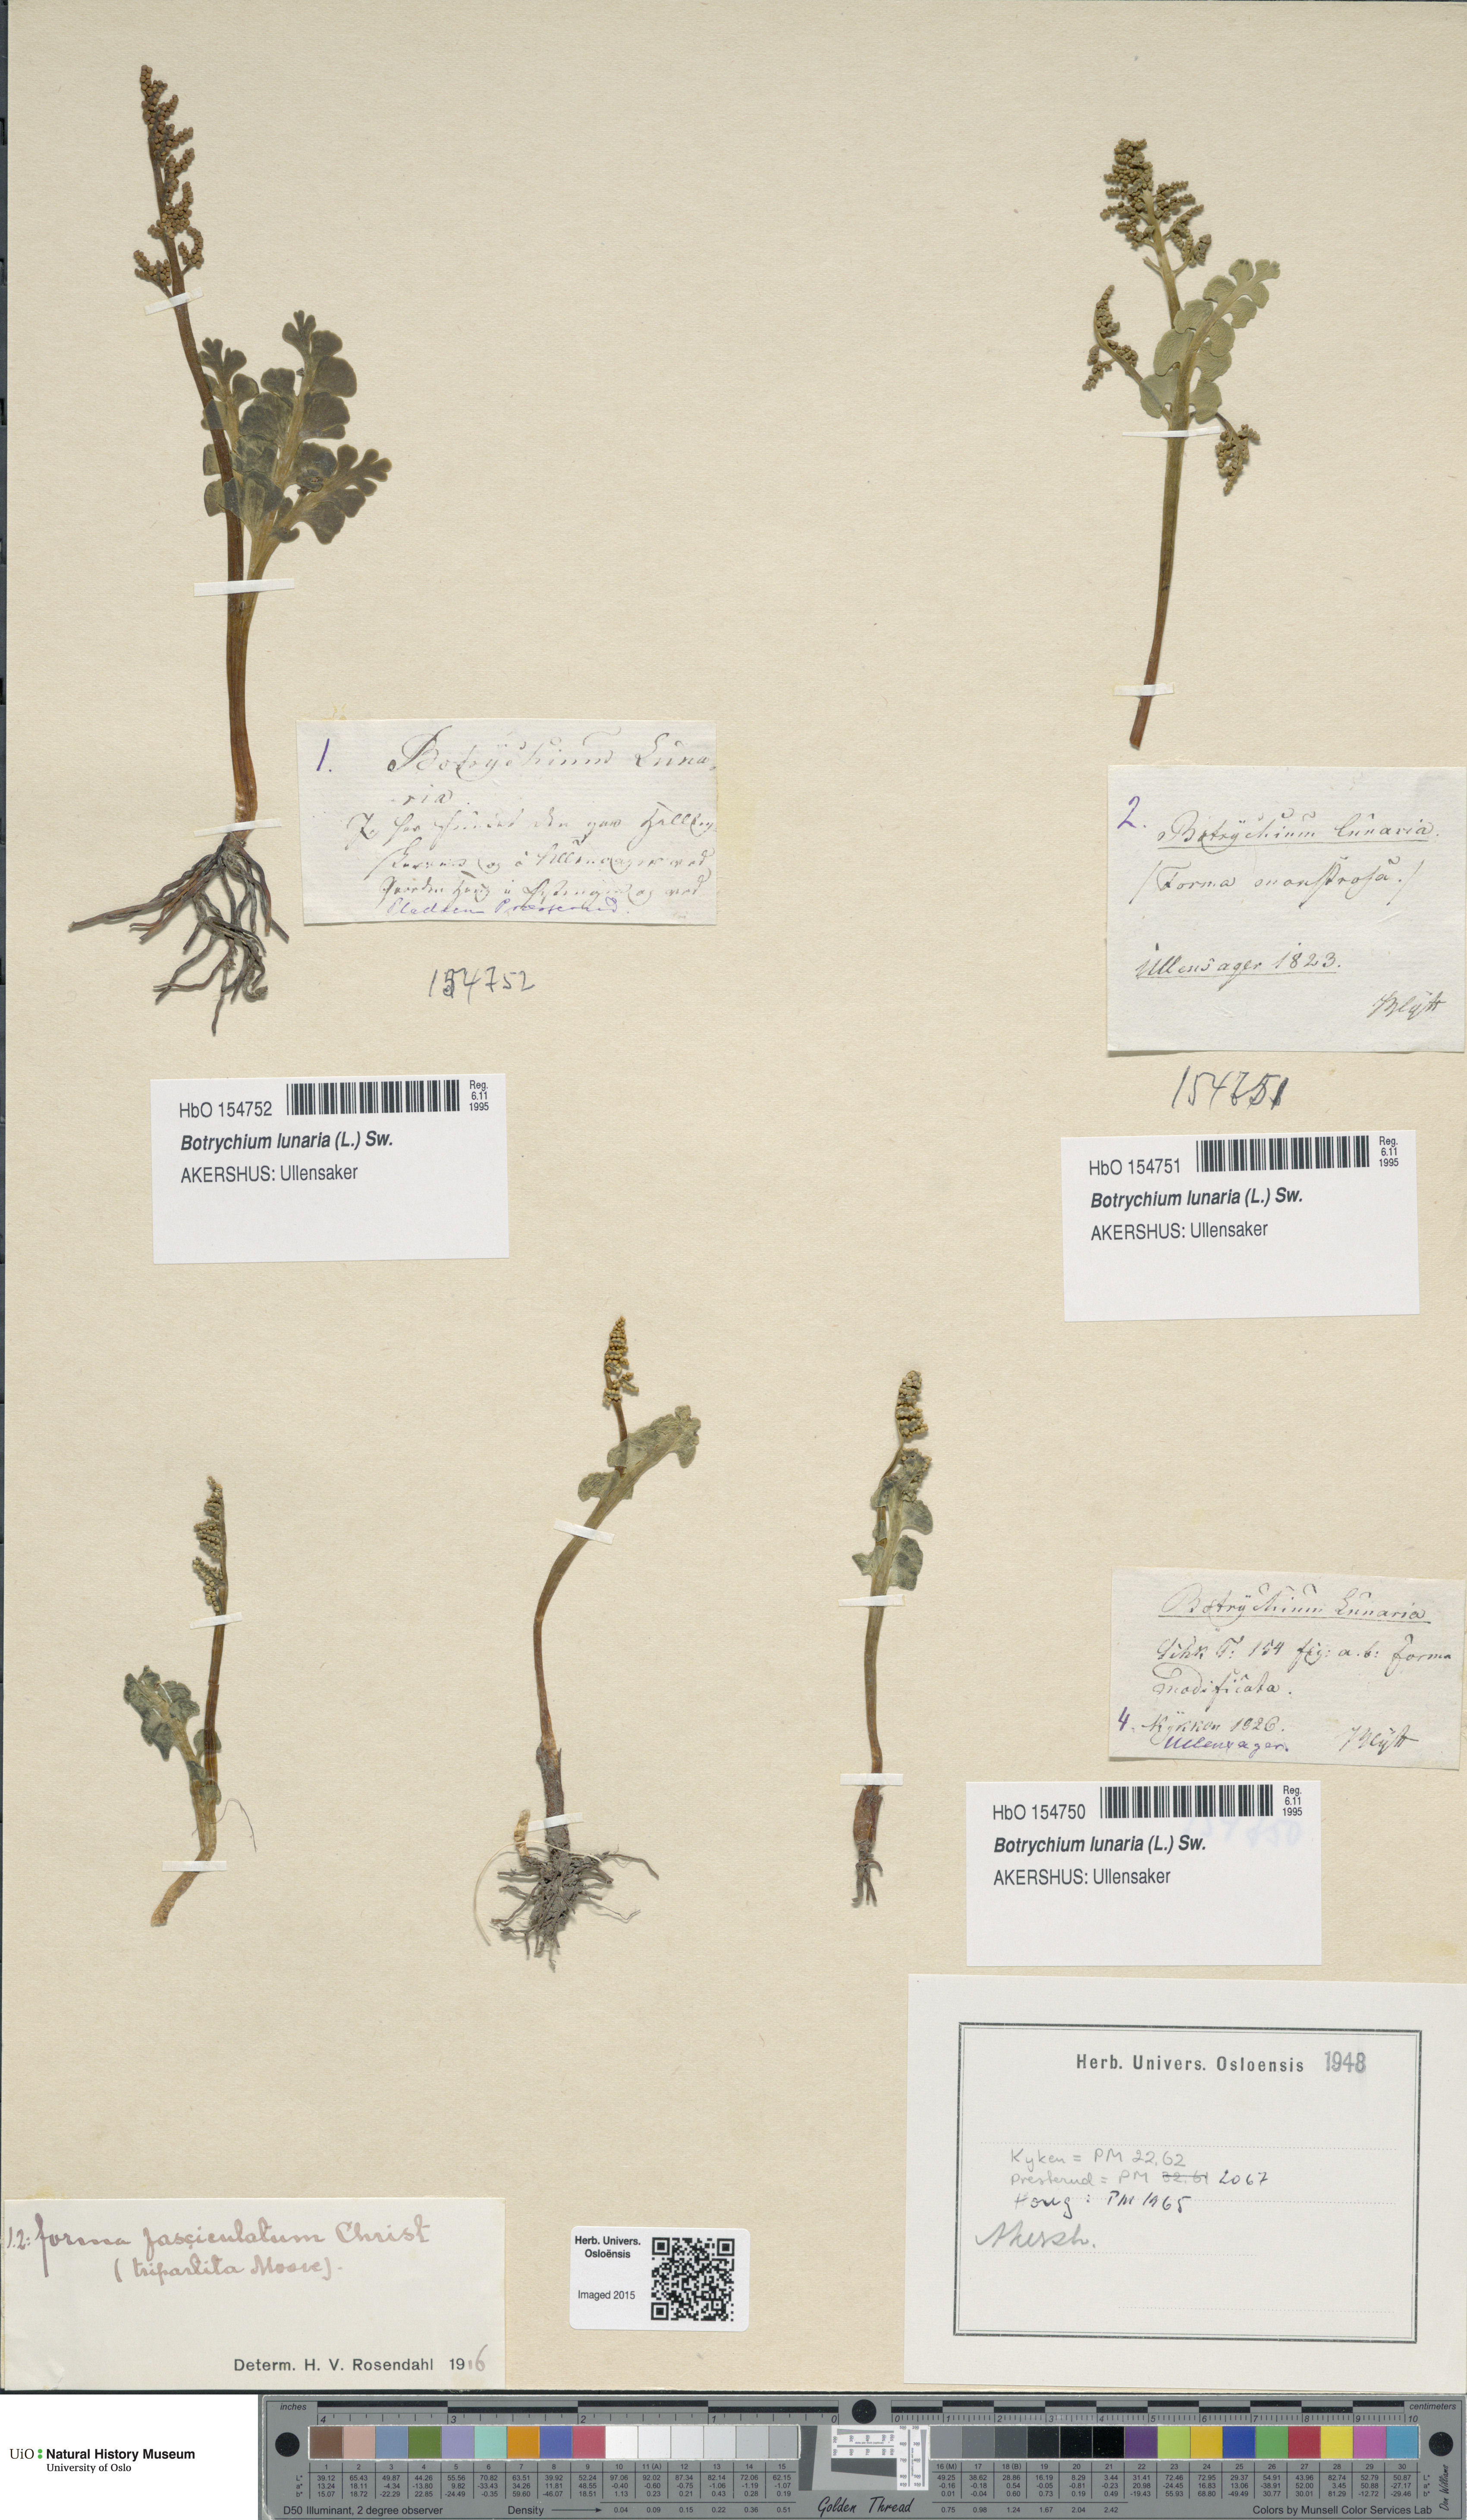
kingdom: Plantae
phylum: Tracheophyta
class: Polypodiopsida
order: Ophioglossales
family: Ophioglossaceae
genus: Botrychium
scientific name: Botrychium lunaria
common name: Moonwort
